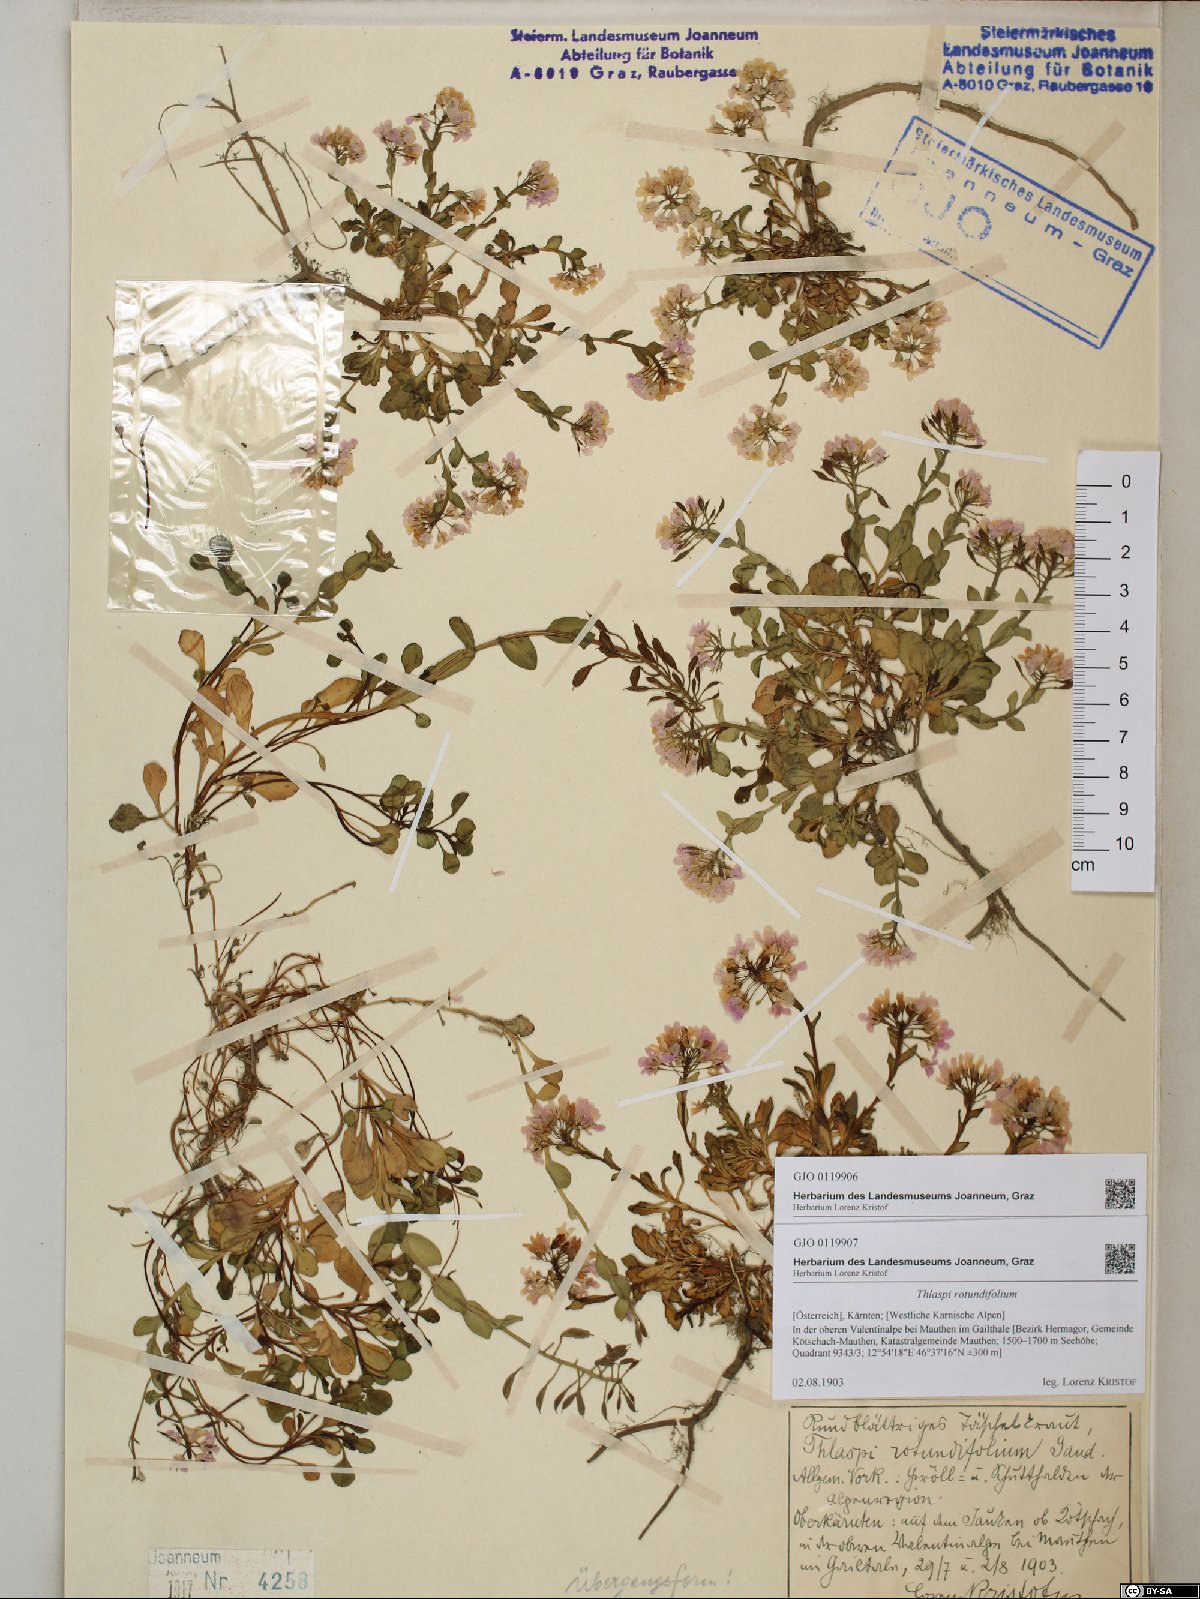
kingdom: Plantae
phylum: Tracheophyta
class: Magnoliopsida
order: Brassicales
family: Brassicaceae
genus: Noccaea
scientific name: Noccaea rotundifolia
